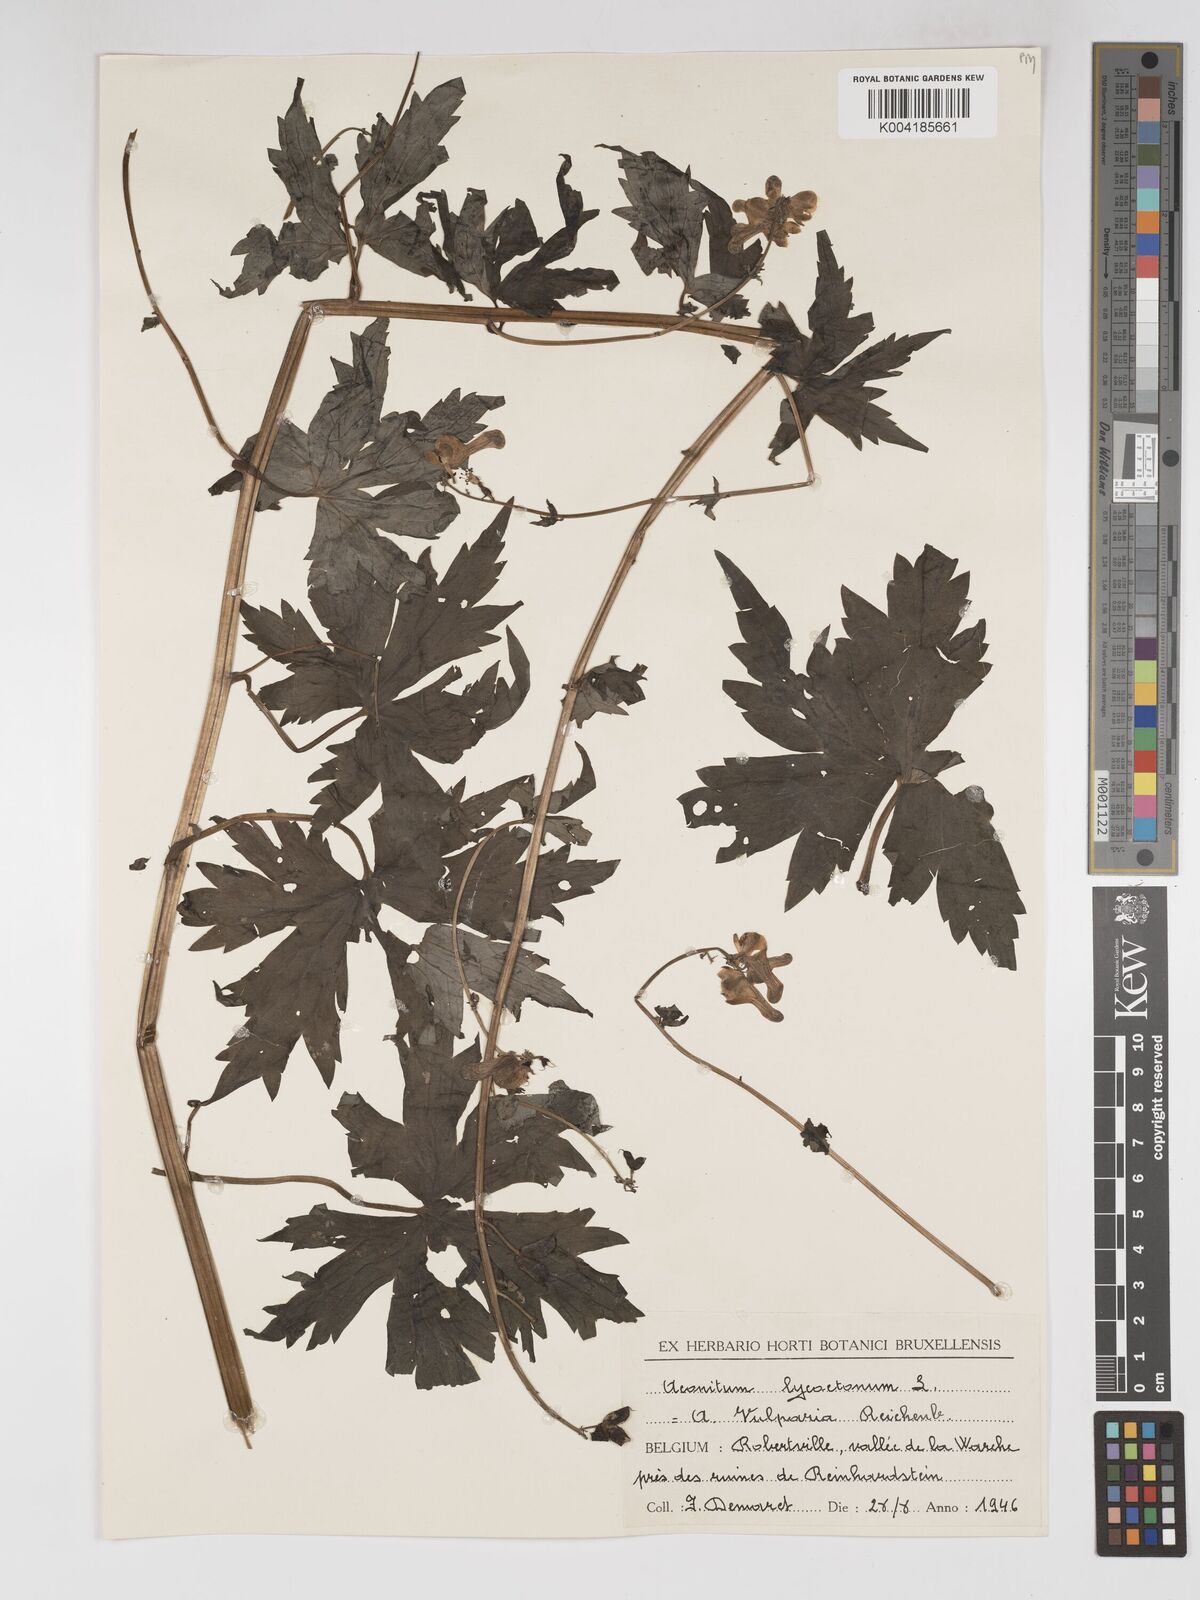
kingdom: Plantae
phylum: Tracheophyta
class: Magnoliopsida
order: Ranunculales
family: Ranunculaceae
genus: Aconitum
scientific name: Aconitum lycoctonum
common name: Wolf's-bane
